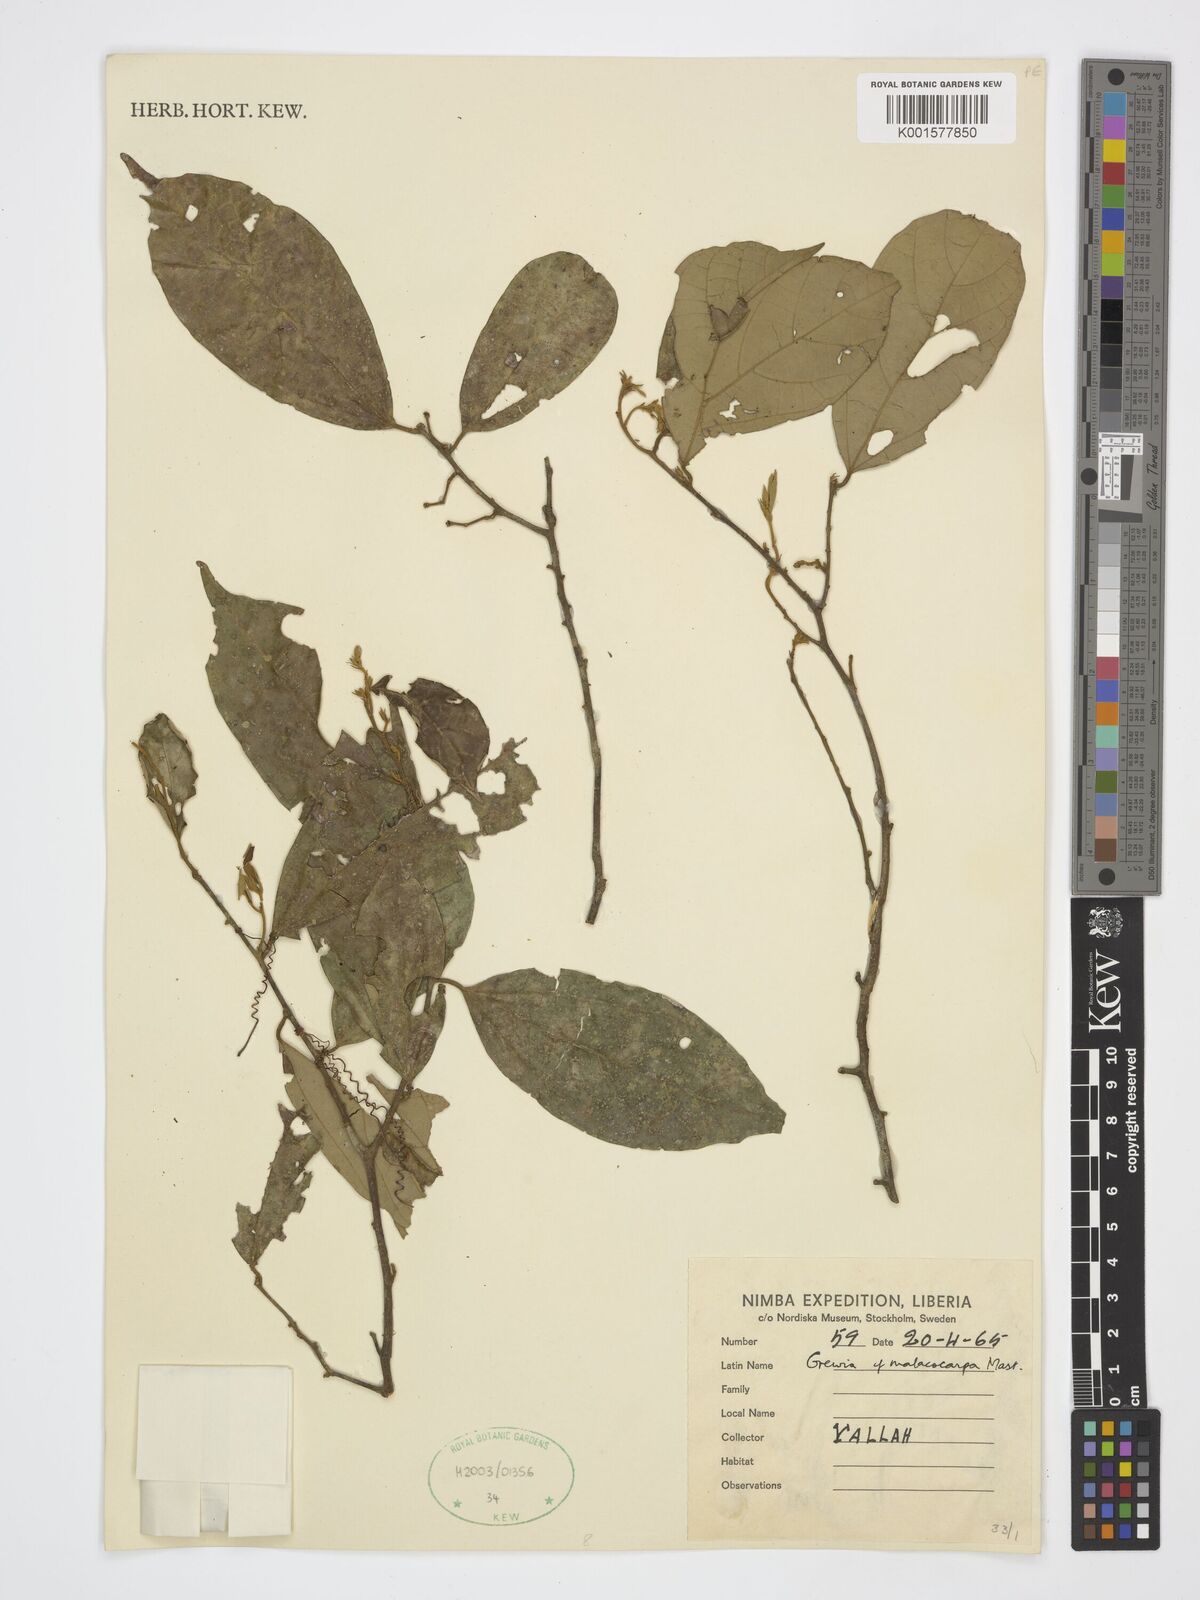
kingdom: Plantae
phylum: Tracheophyta
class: Magnoliopsida
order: Malvales
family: Malvaceae
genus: Microcos
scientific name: Microcos malacocarpa
